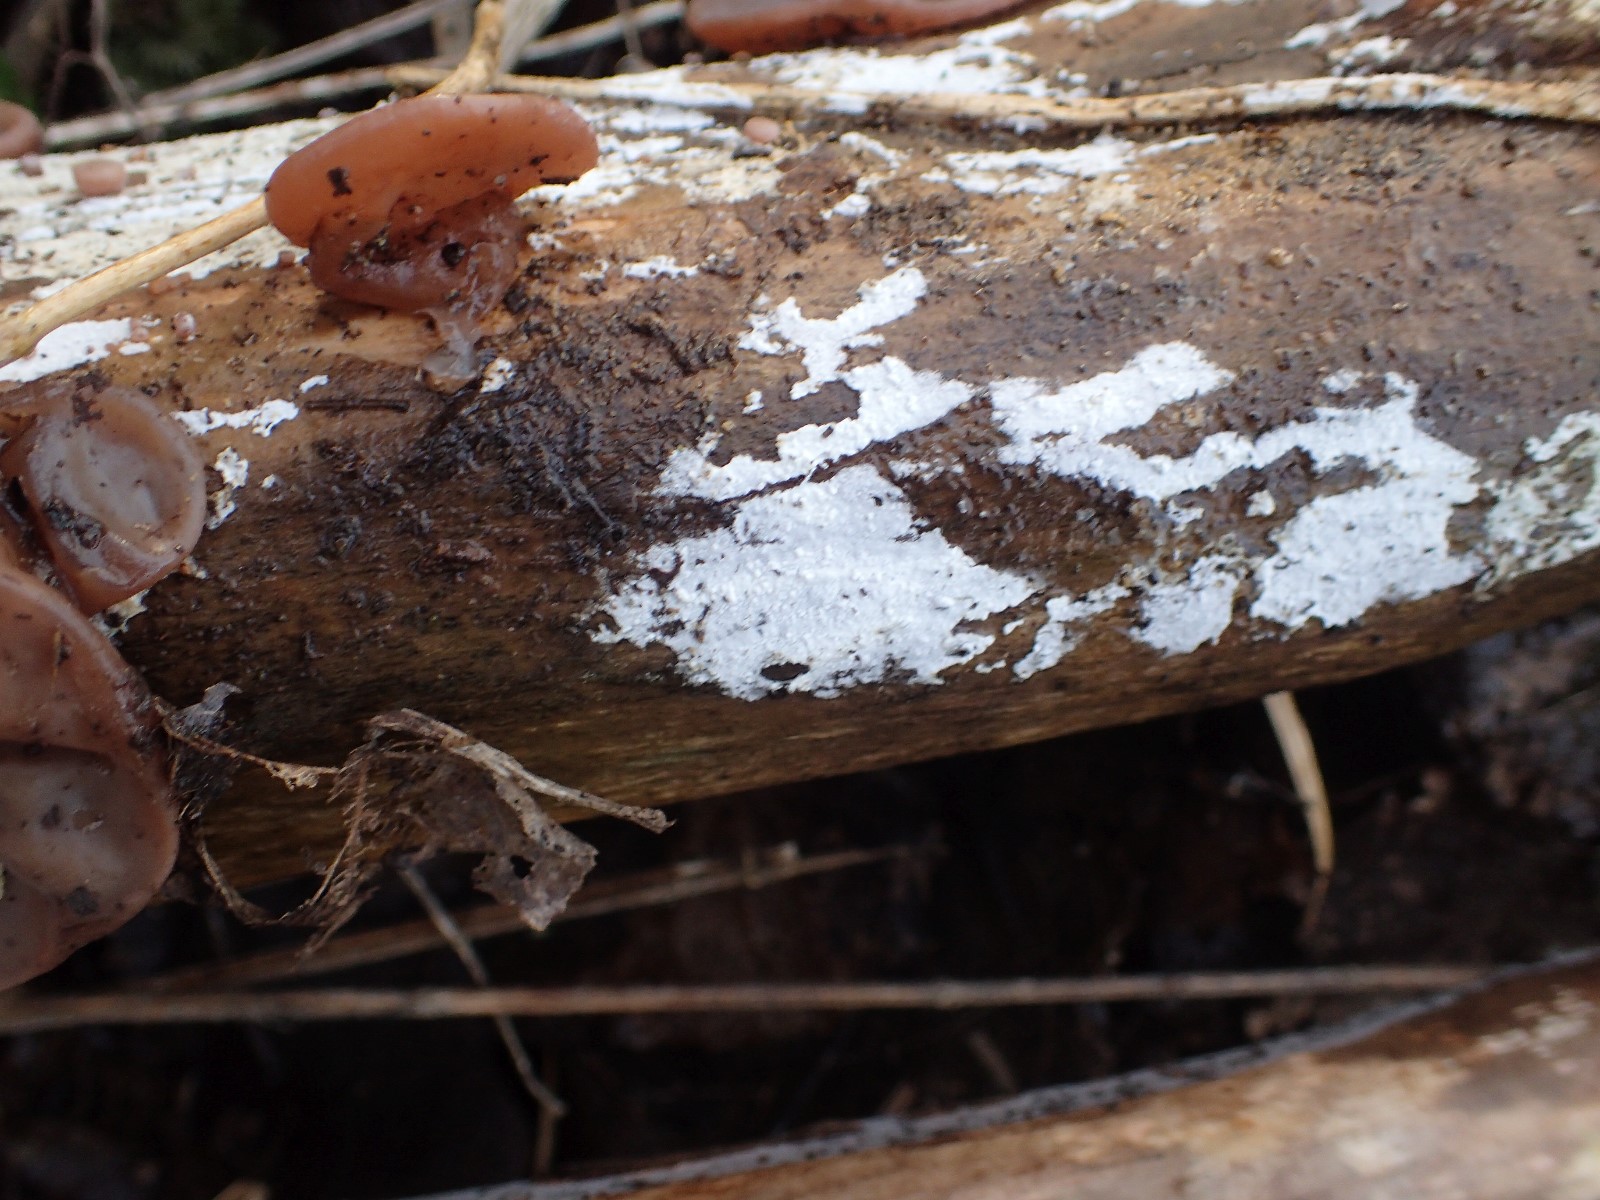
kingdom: Fungi
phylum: Basidiomycota
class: Agaricomycetes
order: Corticiales
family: Corticiaceae
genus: Lyomyces
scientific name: Lyomyces sambuci
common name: almindelig hyldehinde
